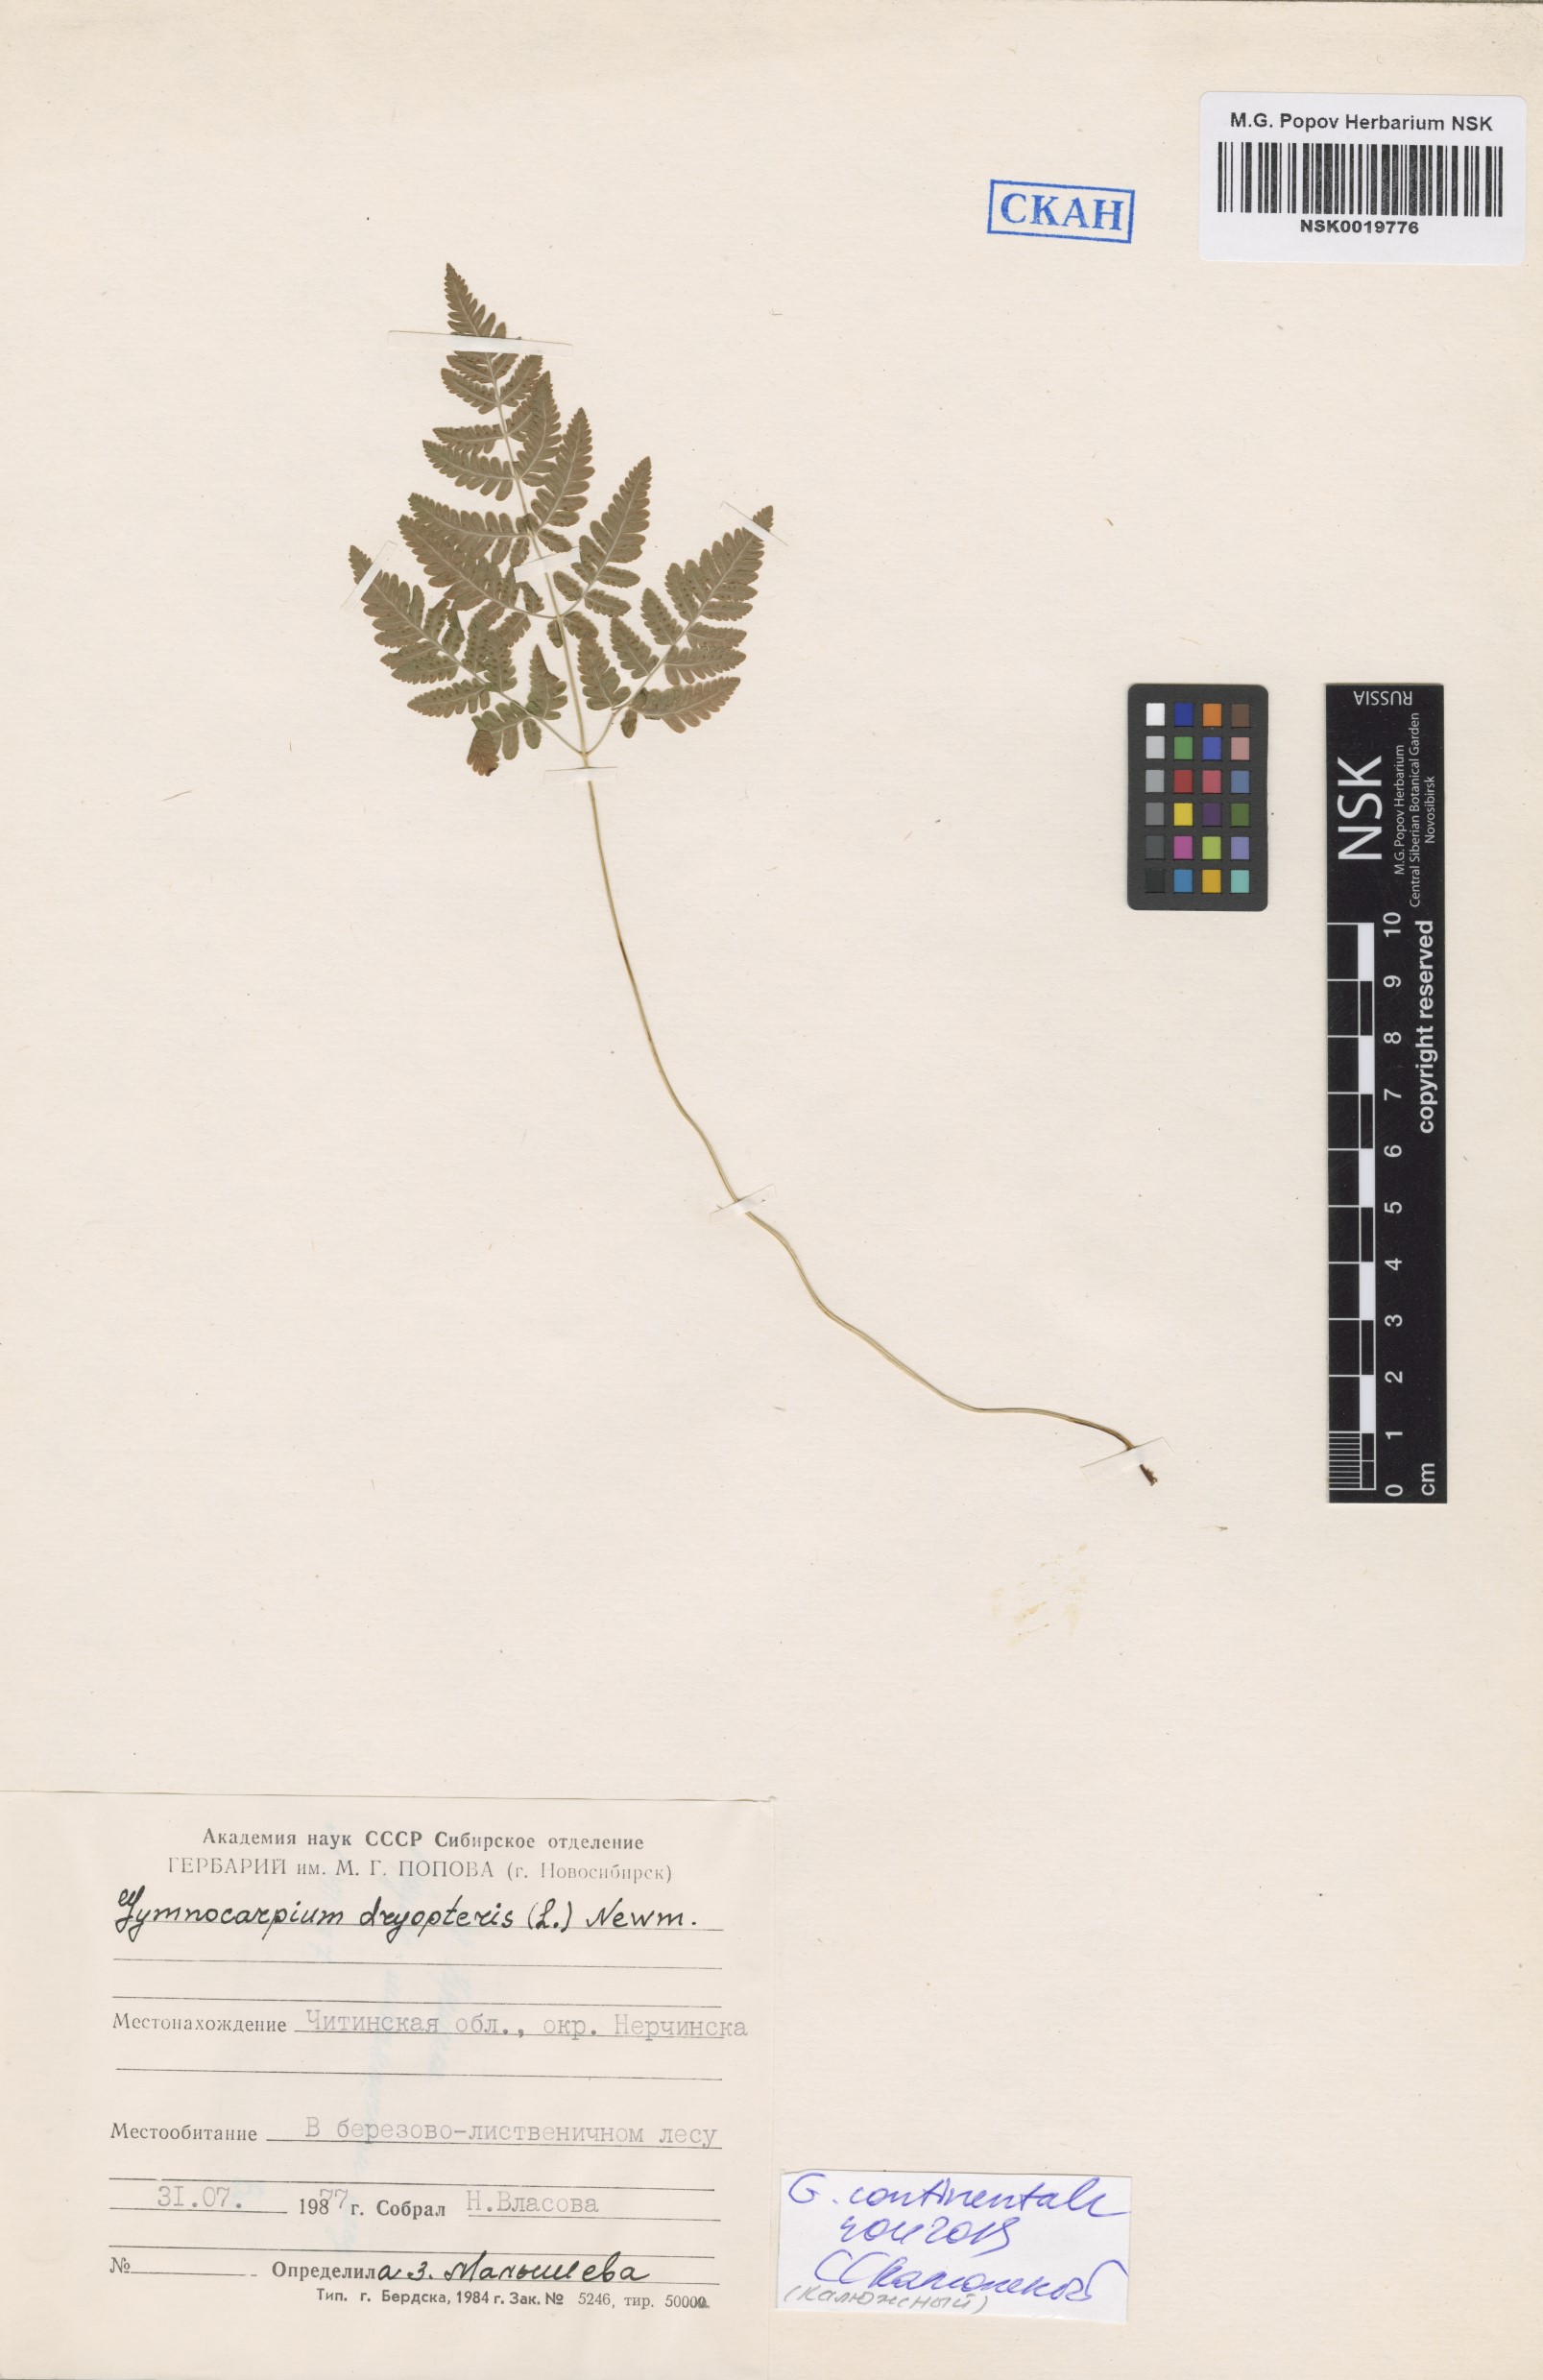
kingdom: Plantae
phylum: Tracheophyta
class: Polypodiopsida
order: Polypodiales
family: Cystopteridaceae
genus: Gymnocarpium
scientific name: Gymnocarpium dryopteris
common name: Oak fern
